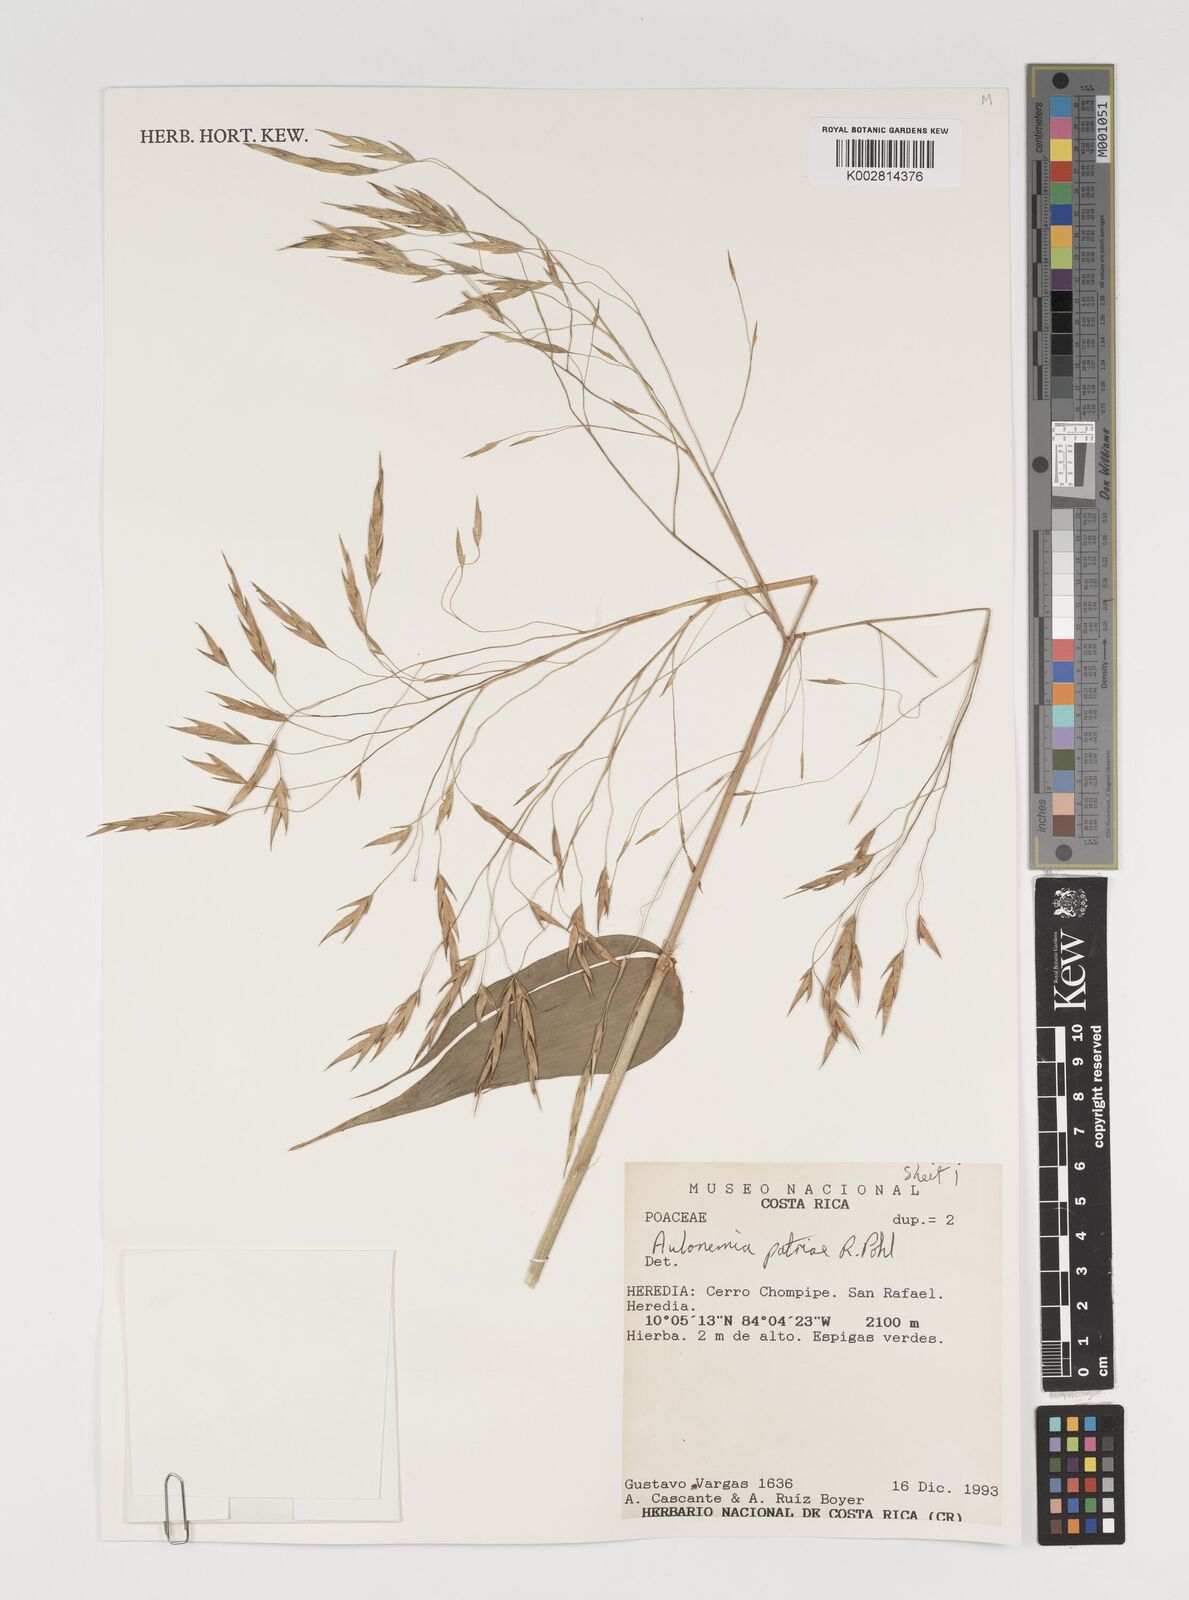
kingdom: Plantae
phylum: Tracheophyta
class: Liliopsida
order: Poales
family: Poaceae
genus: Aulonemia
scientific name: Aulonemia patriae
